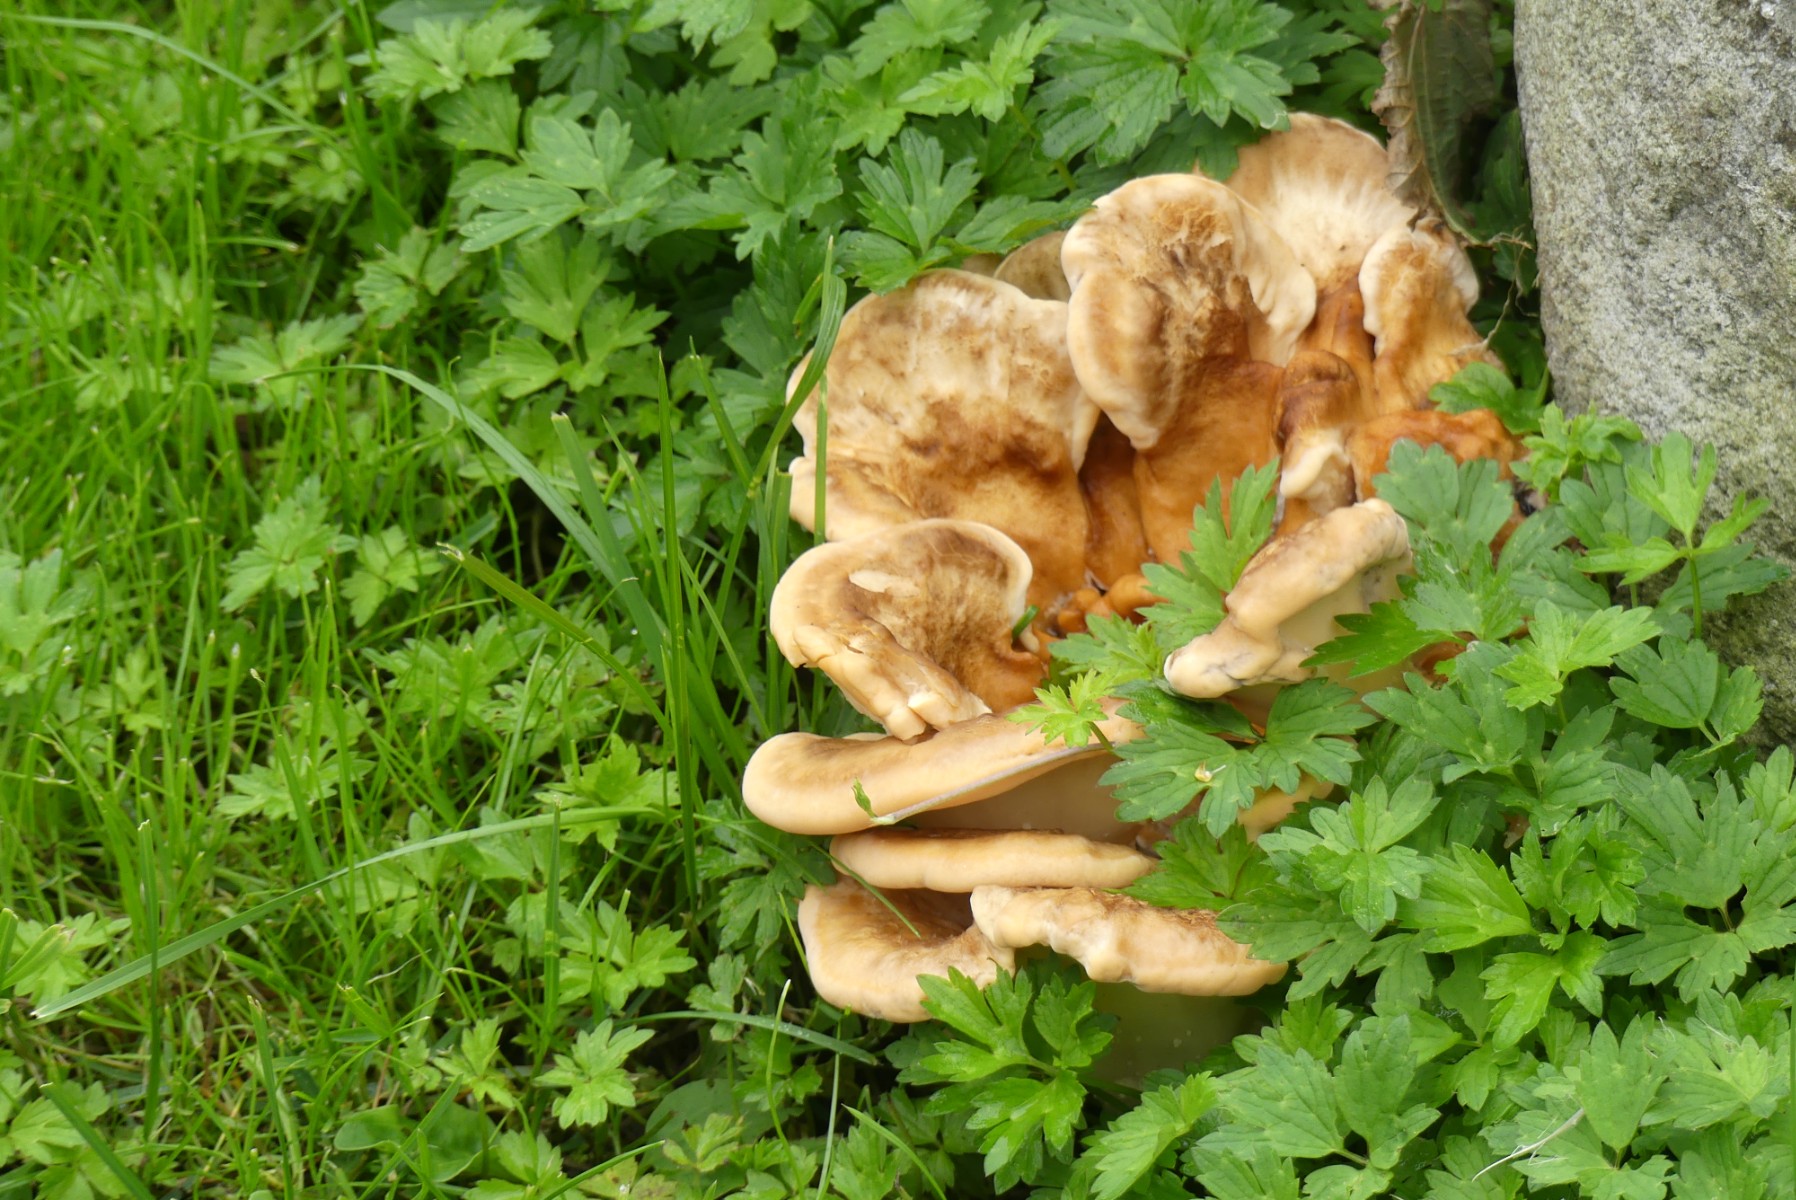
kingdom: Fungi
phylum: Basidiomycota
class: Agaricomycetes
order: Polyporales
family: Meripilaceae
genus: Meripilus
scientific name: Meripilus giganteus
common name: kæmpeporesvamp
